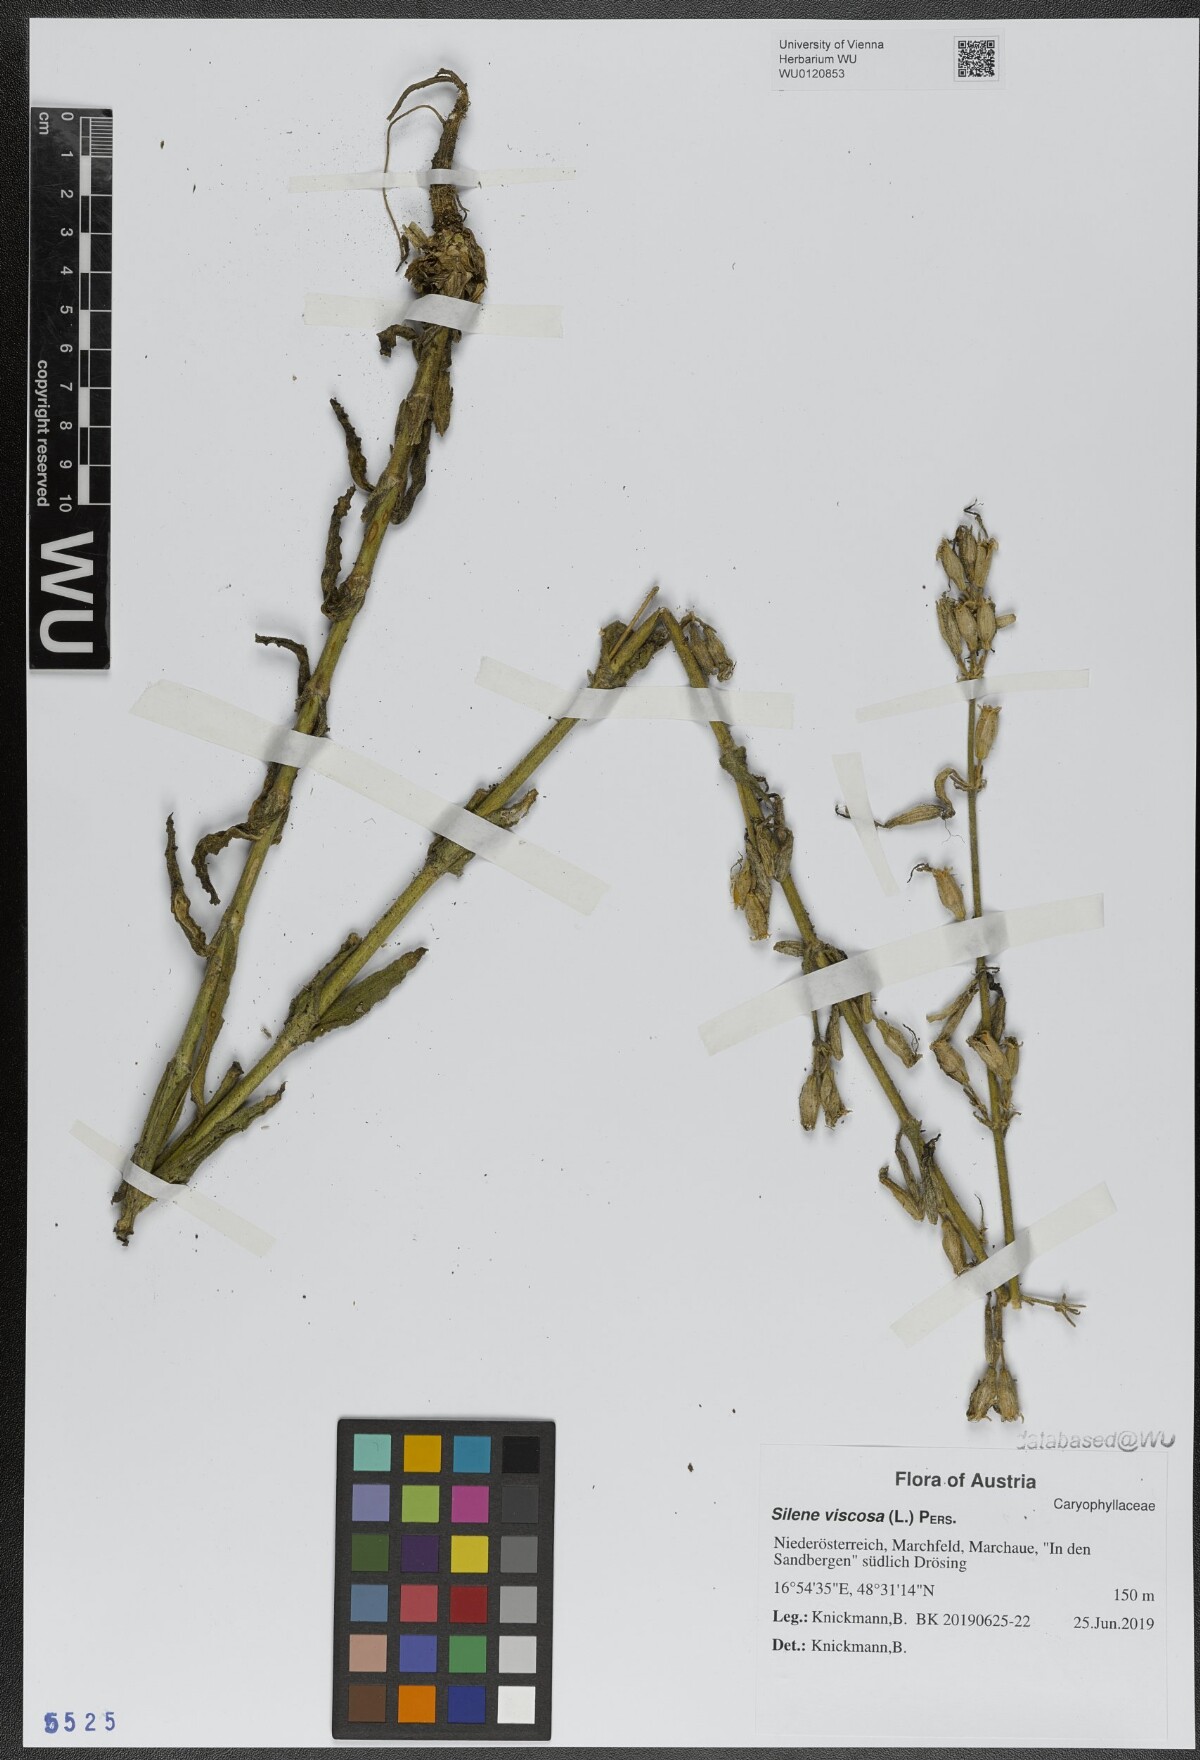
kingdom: Plantae
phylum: Tracheophyta
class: Magnoliopsida
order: Caryophyllales
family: Caryophyllaceae
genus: Silene
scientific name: Silene viscosa
